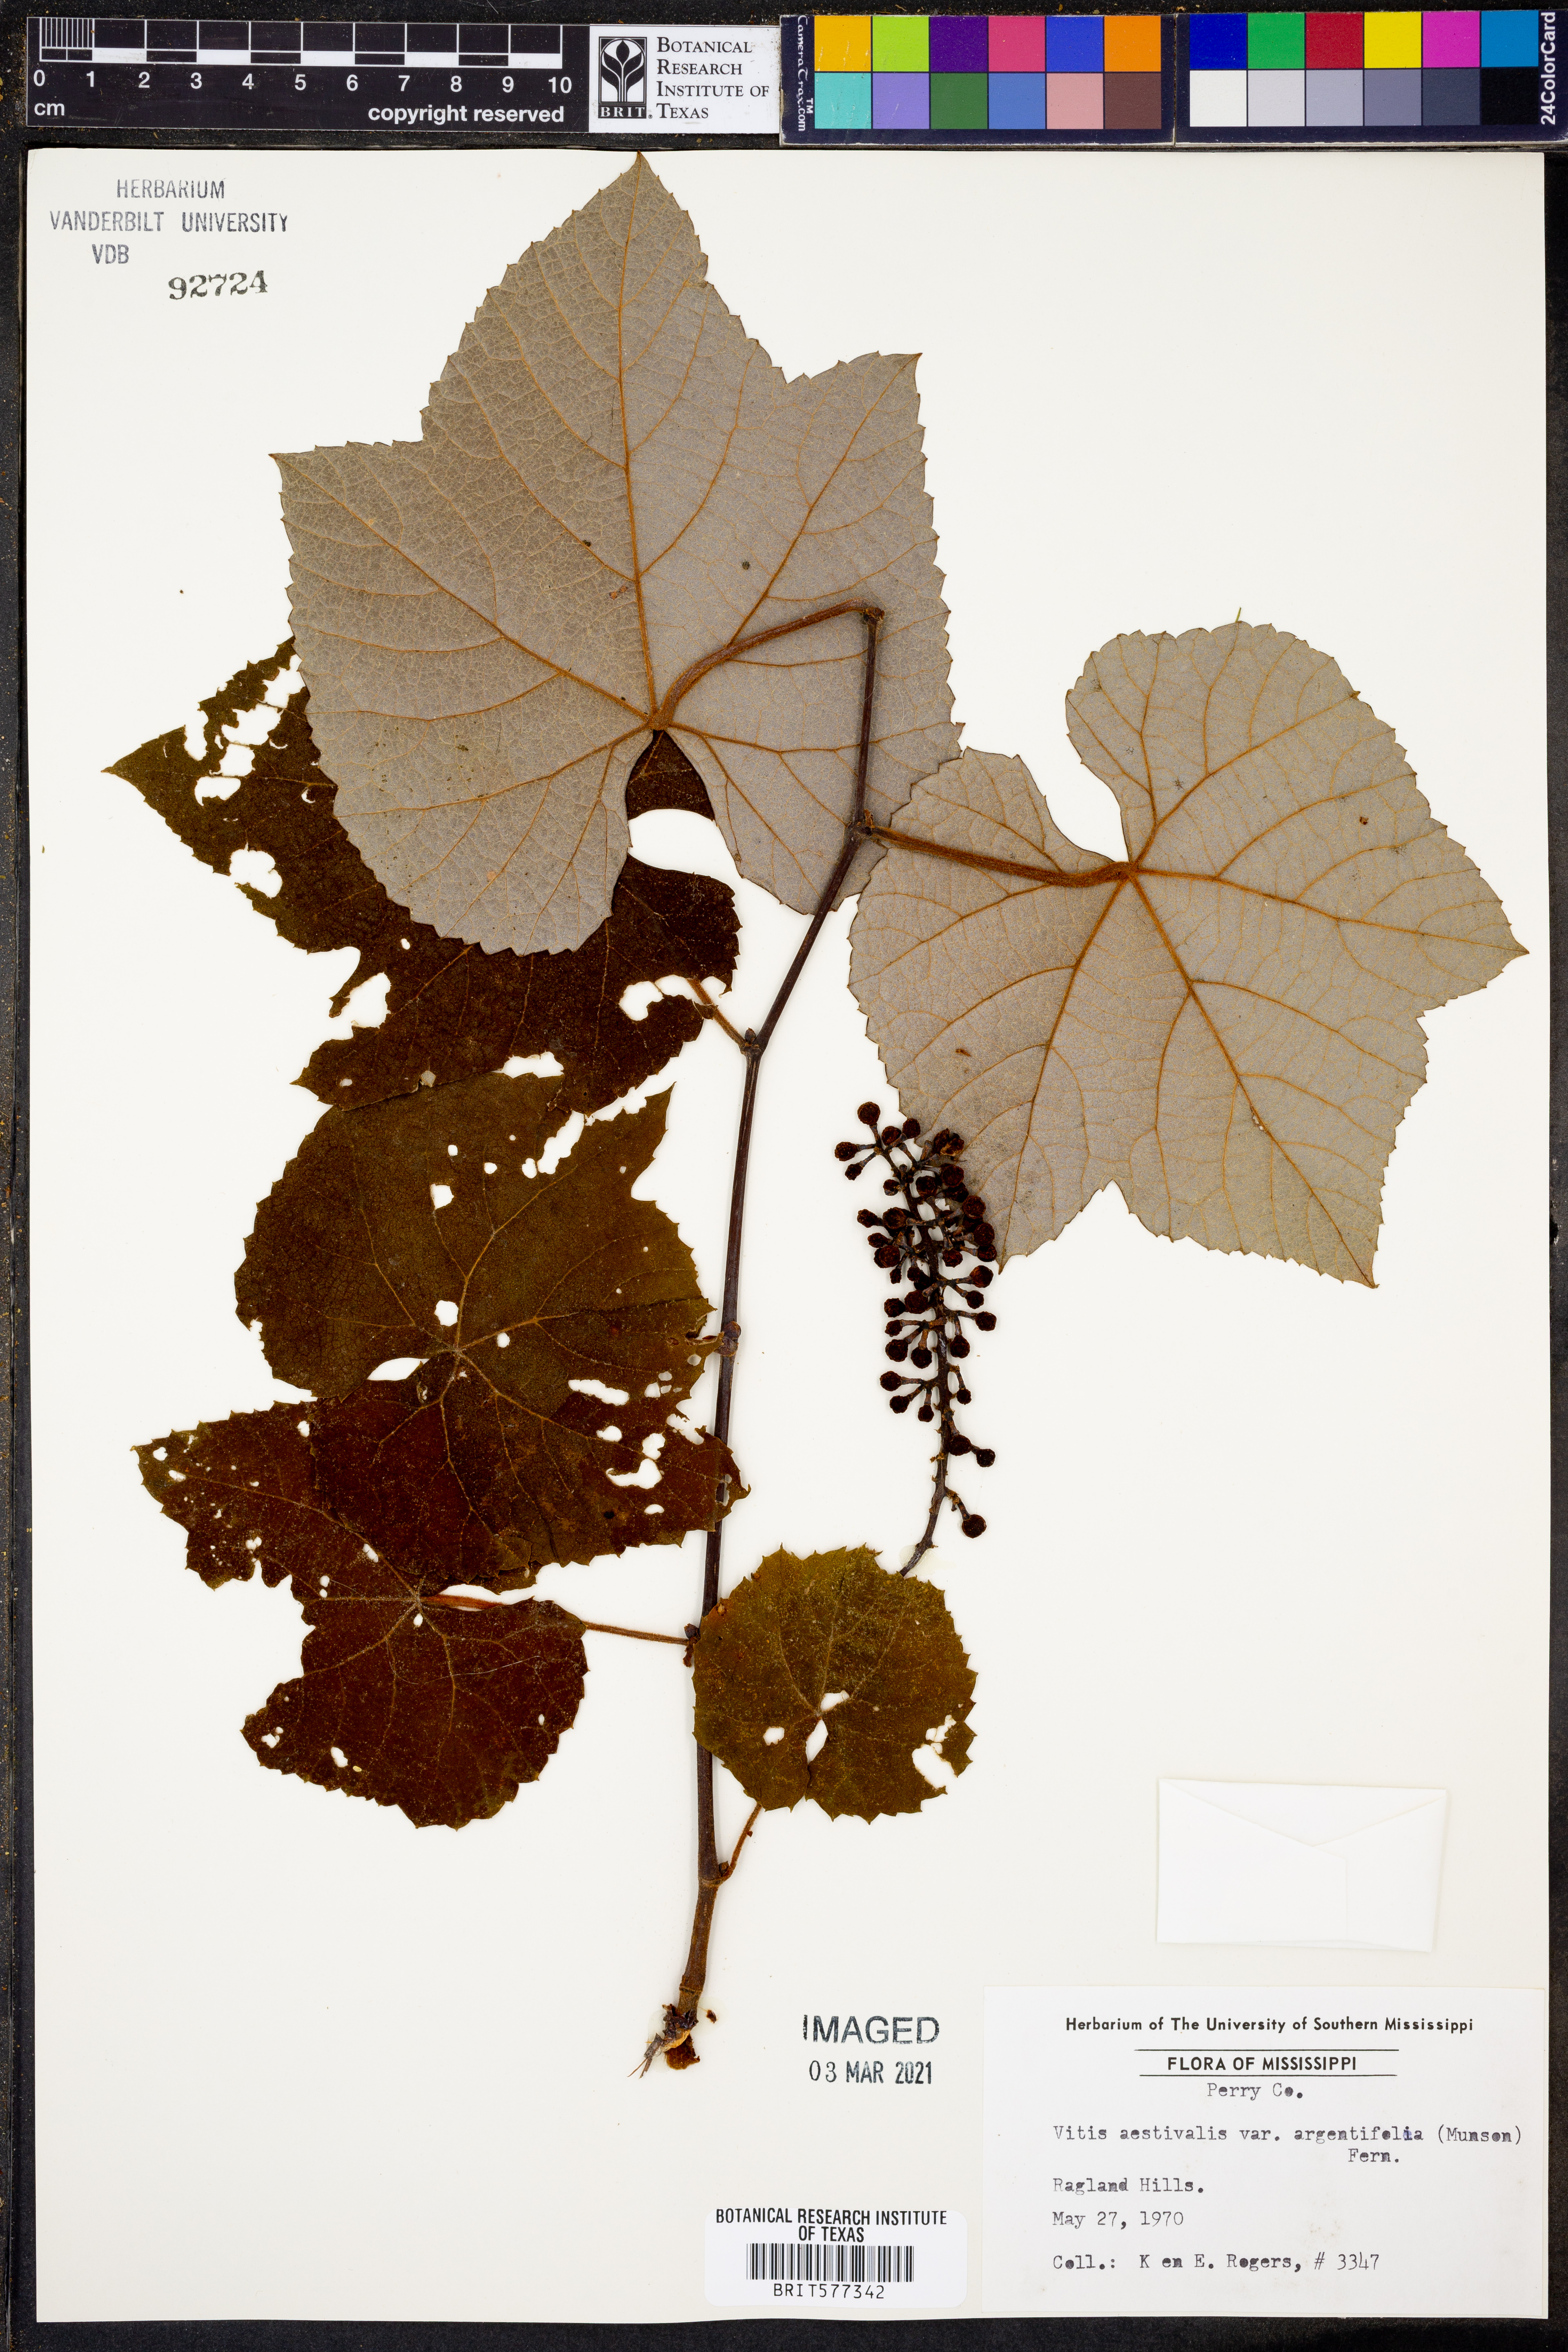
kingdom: Plantae
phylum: Tracheophyta
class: Magnoliopsida
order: Vitales
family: Vitaceae
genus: Vitis
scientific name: Vitis aestivalis
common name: Pigeon grape
